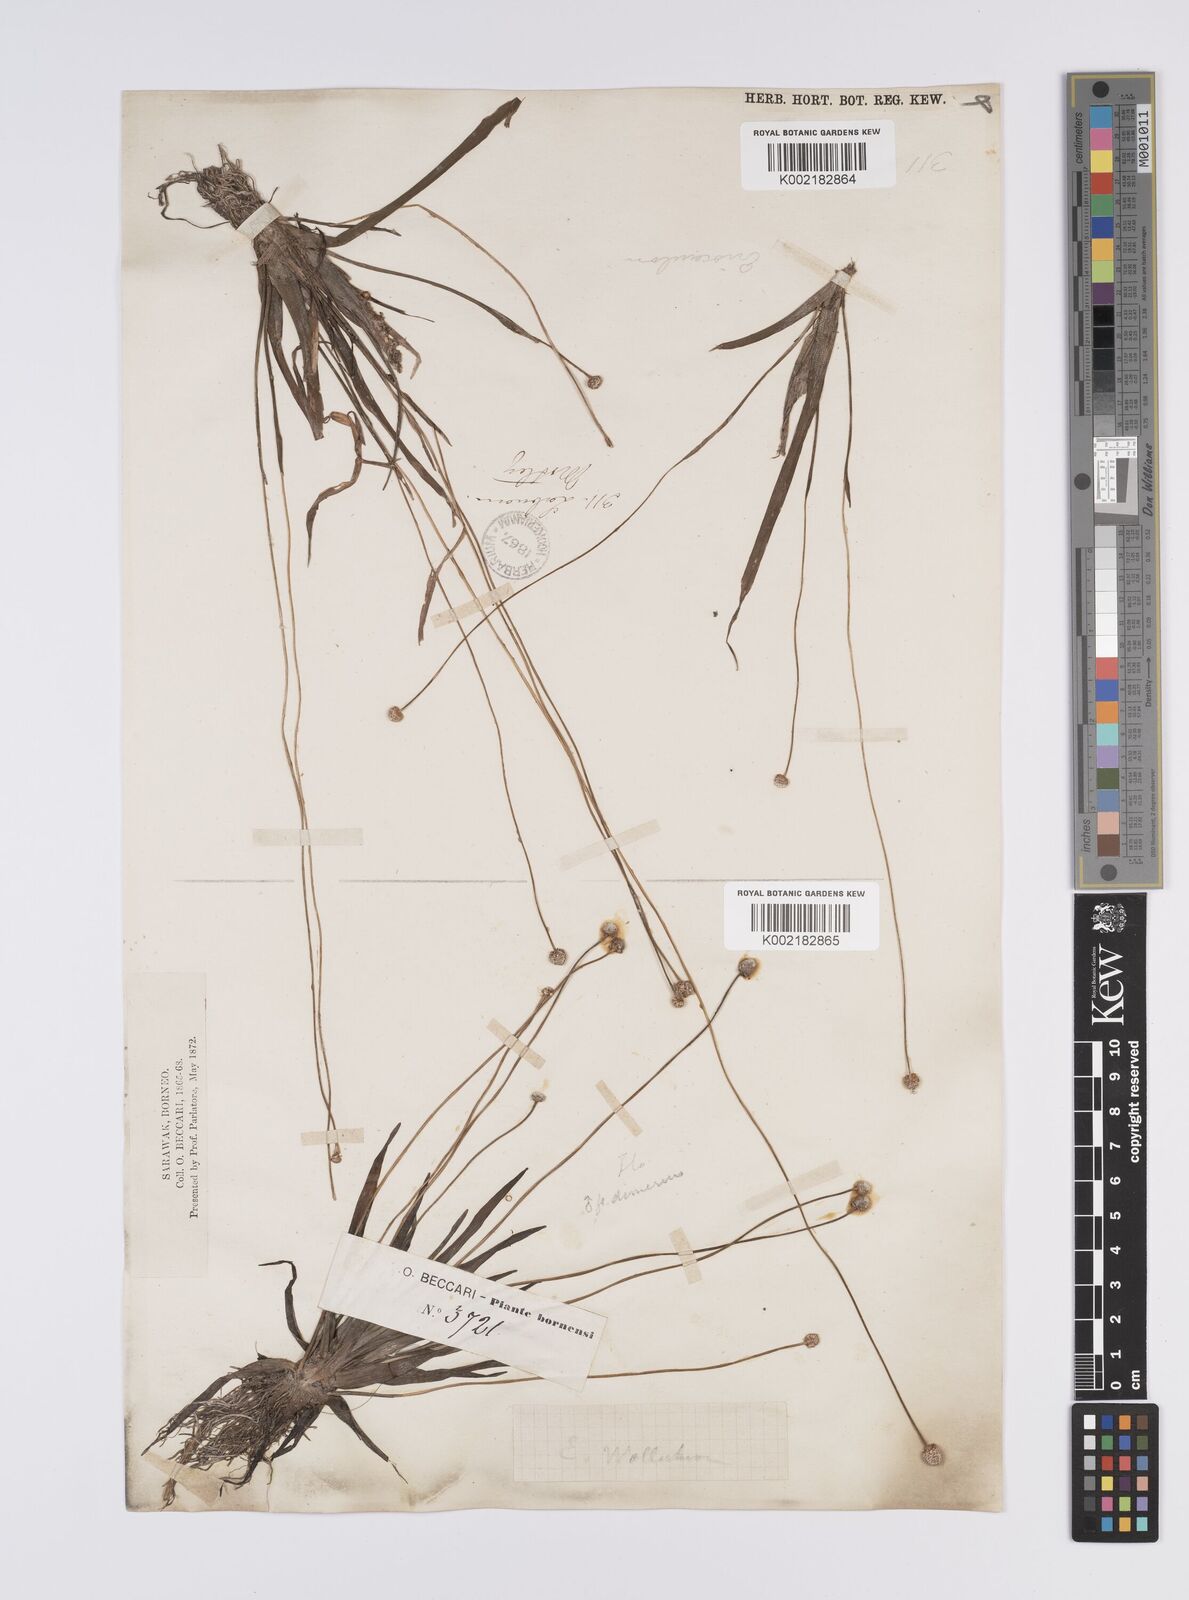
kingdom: Plantae
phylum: Tracheophyta
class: Liliopsida
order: Poales
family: Eriocaulaceae
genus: Eriocaulon
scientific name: Eriocaulon willdenovianum
